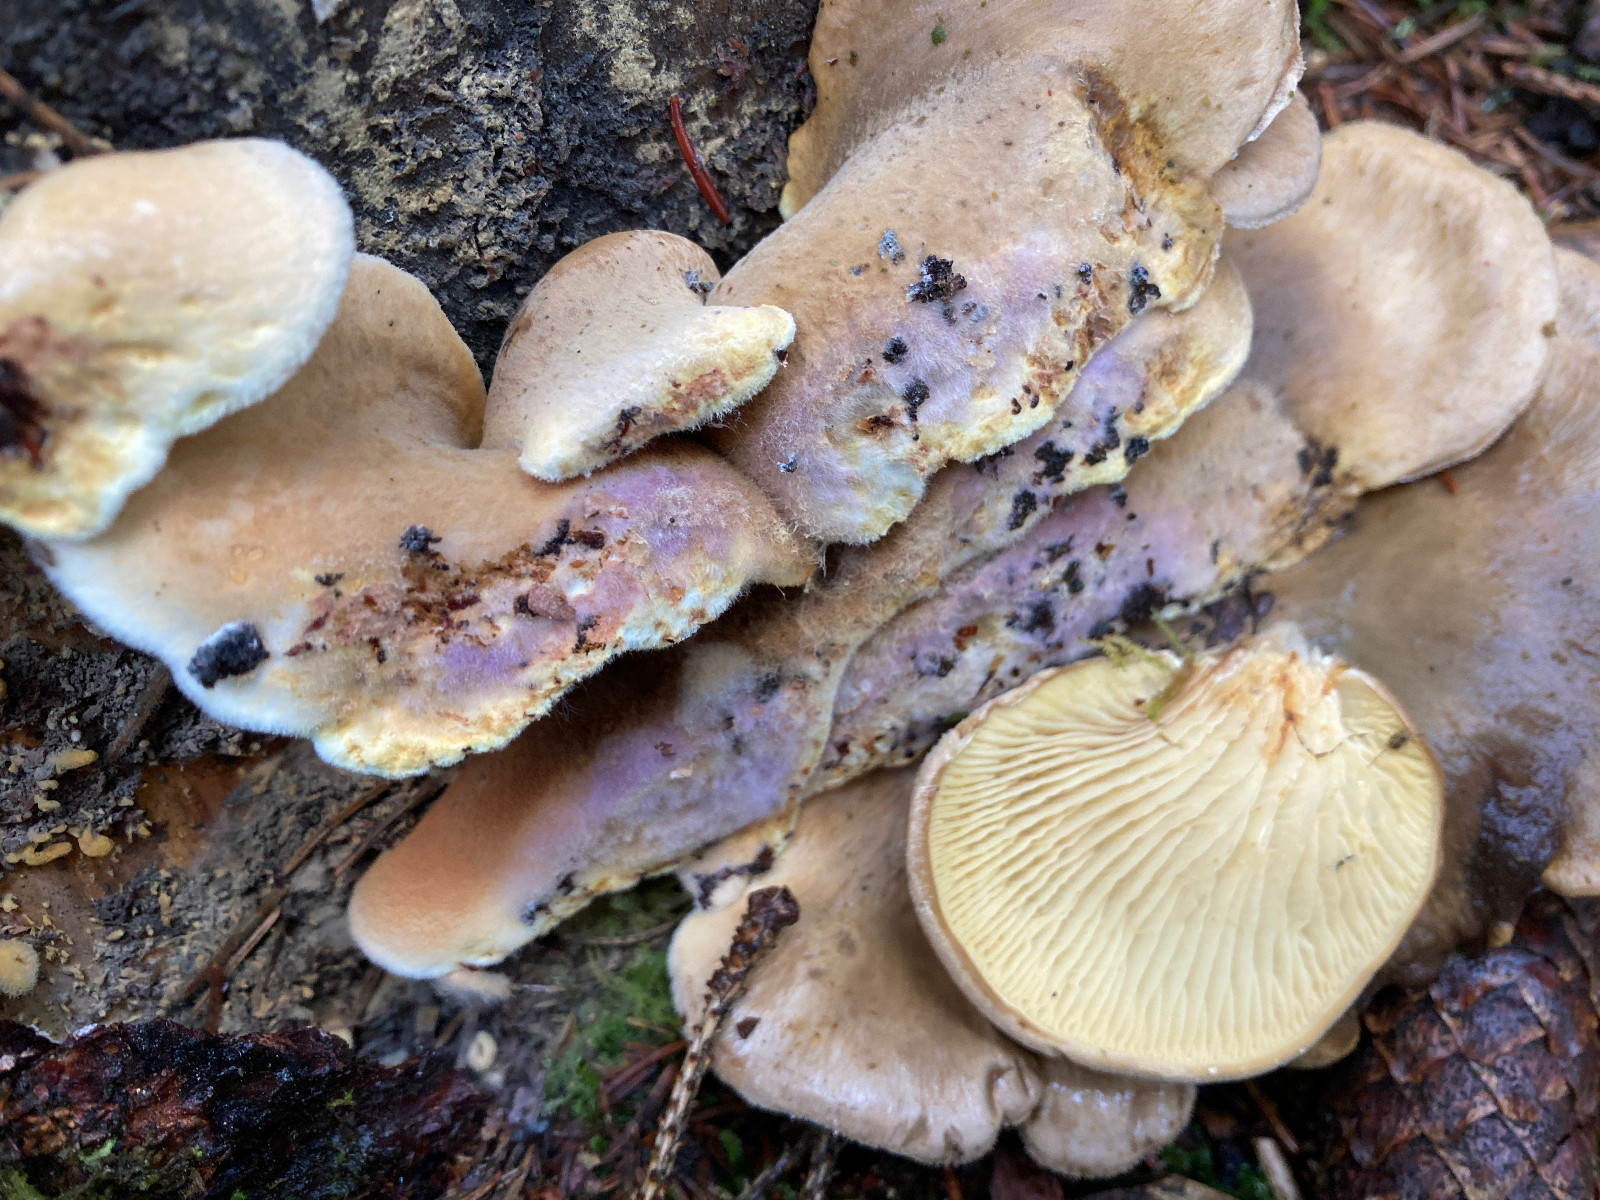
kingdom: Fungi
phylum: Basidiomycota
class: Agaricomycetes
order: Boletales
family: Tapinellaceae
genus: Tapinella
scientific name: Tapinella panuoides
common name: tømmer-viftesvamp
